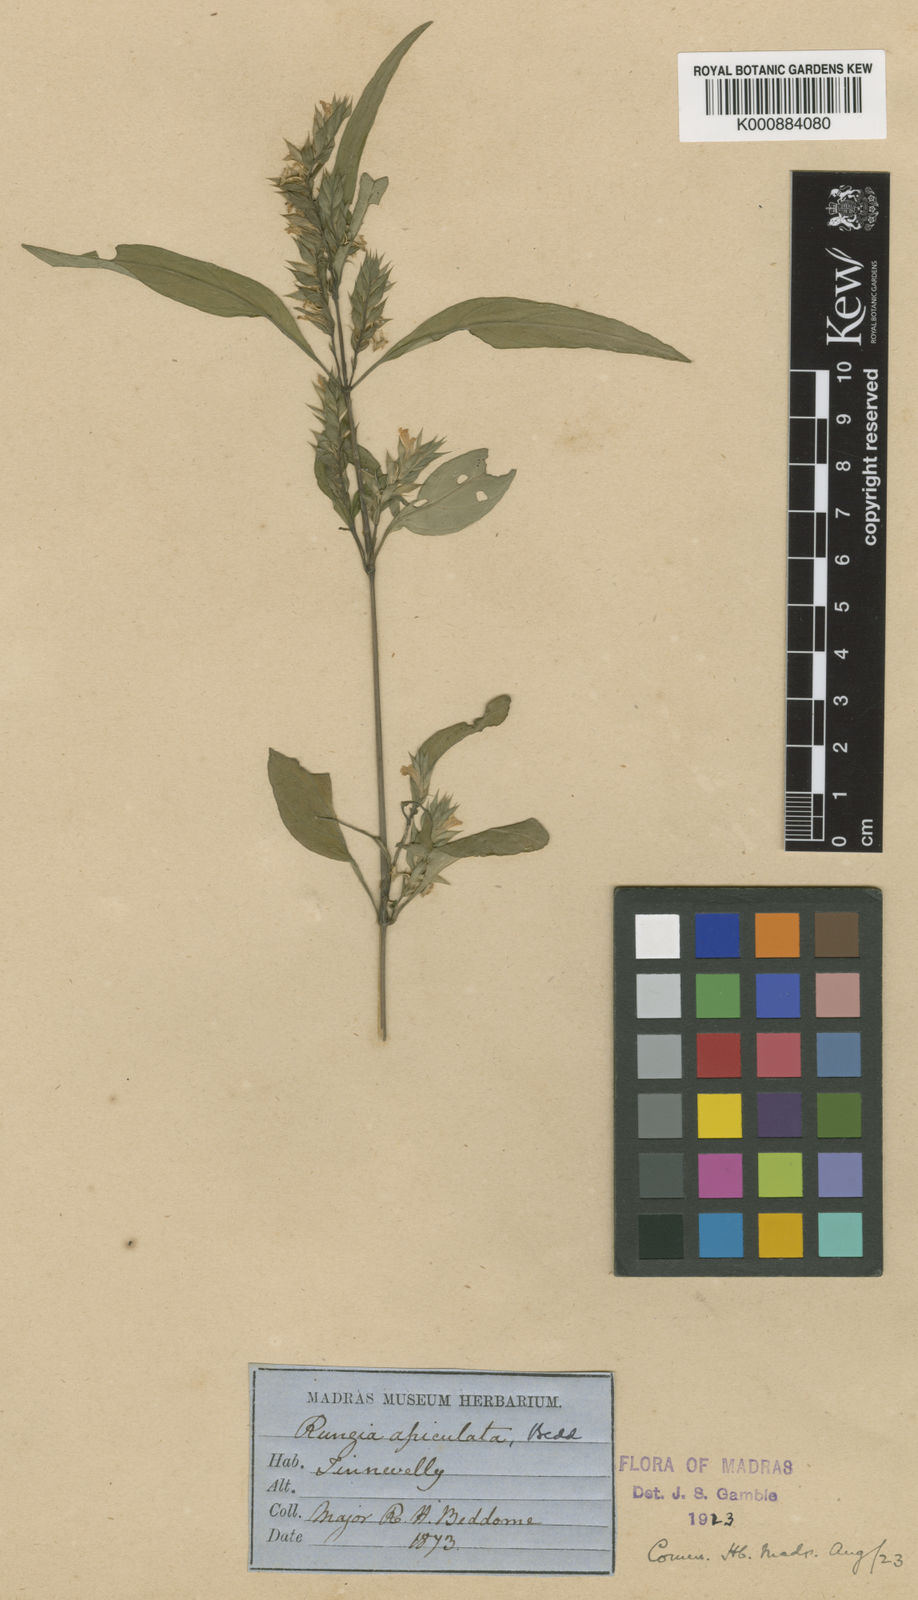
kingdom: Plantae
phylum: Tracheophyta
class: Magnoliopsida
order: Lamiales
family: Acanthaceae
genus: Rungia
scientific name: Rungia apiculata
